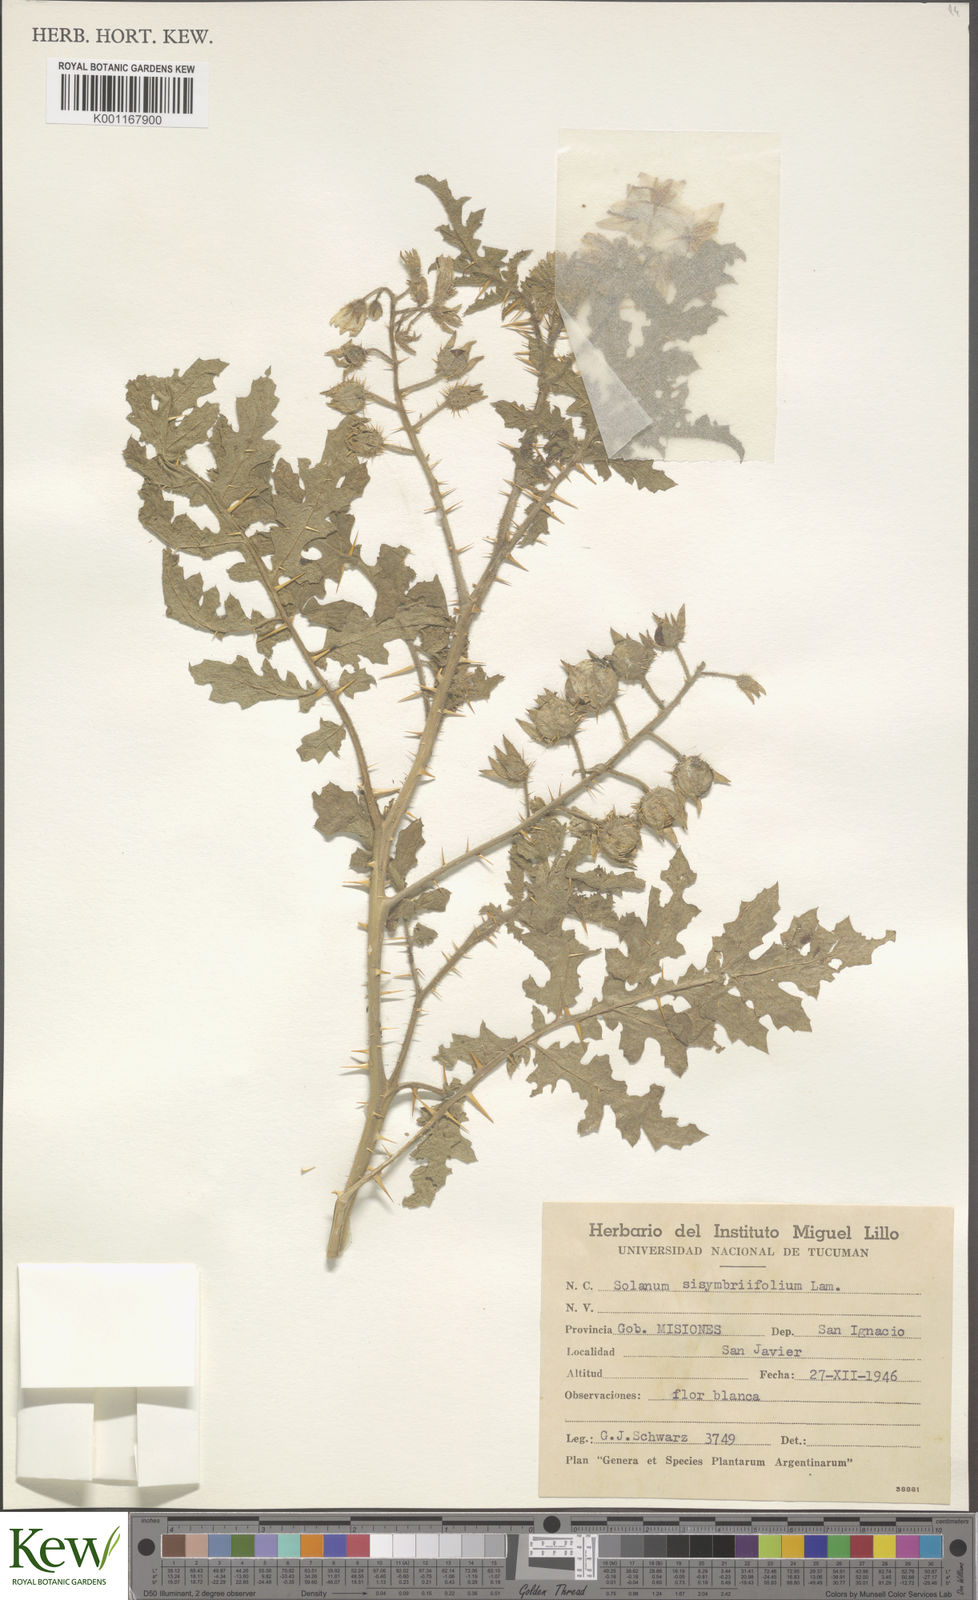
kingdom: Plantae
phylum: Tracheophyta
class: Magnoliopsida
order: Solanales
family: Solanaceae
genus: Solanum
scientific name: Solanum sisymbriifolium
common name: Red buffalo-bur
